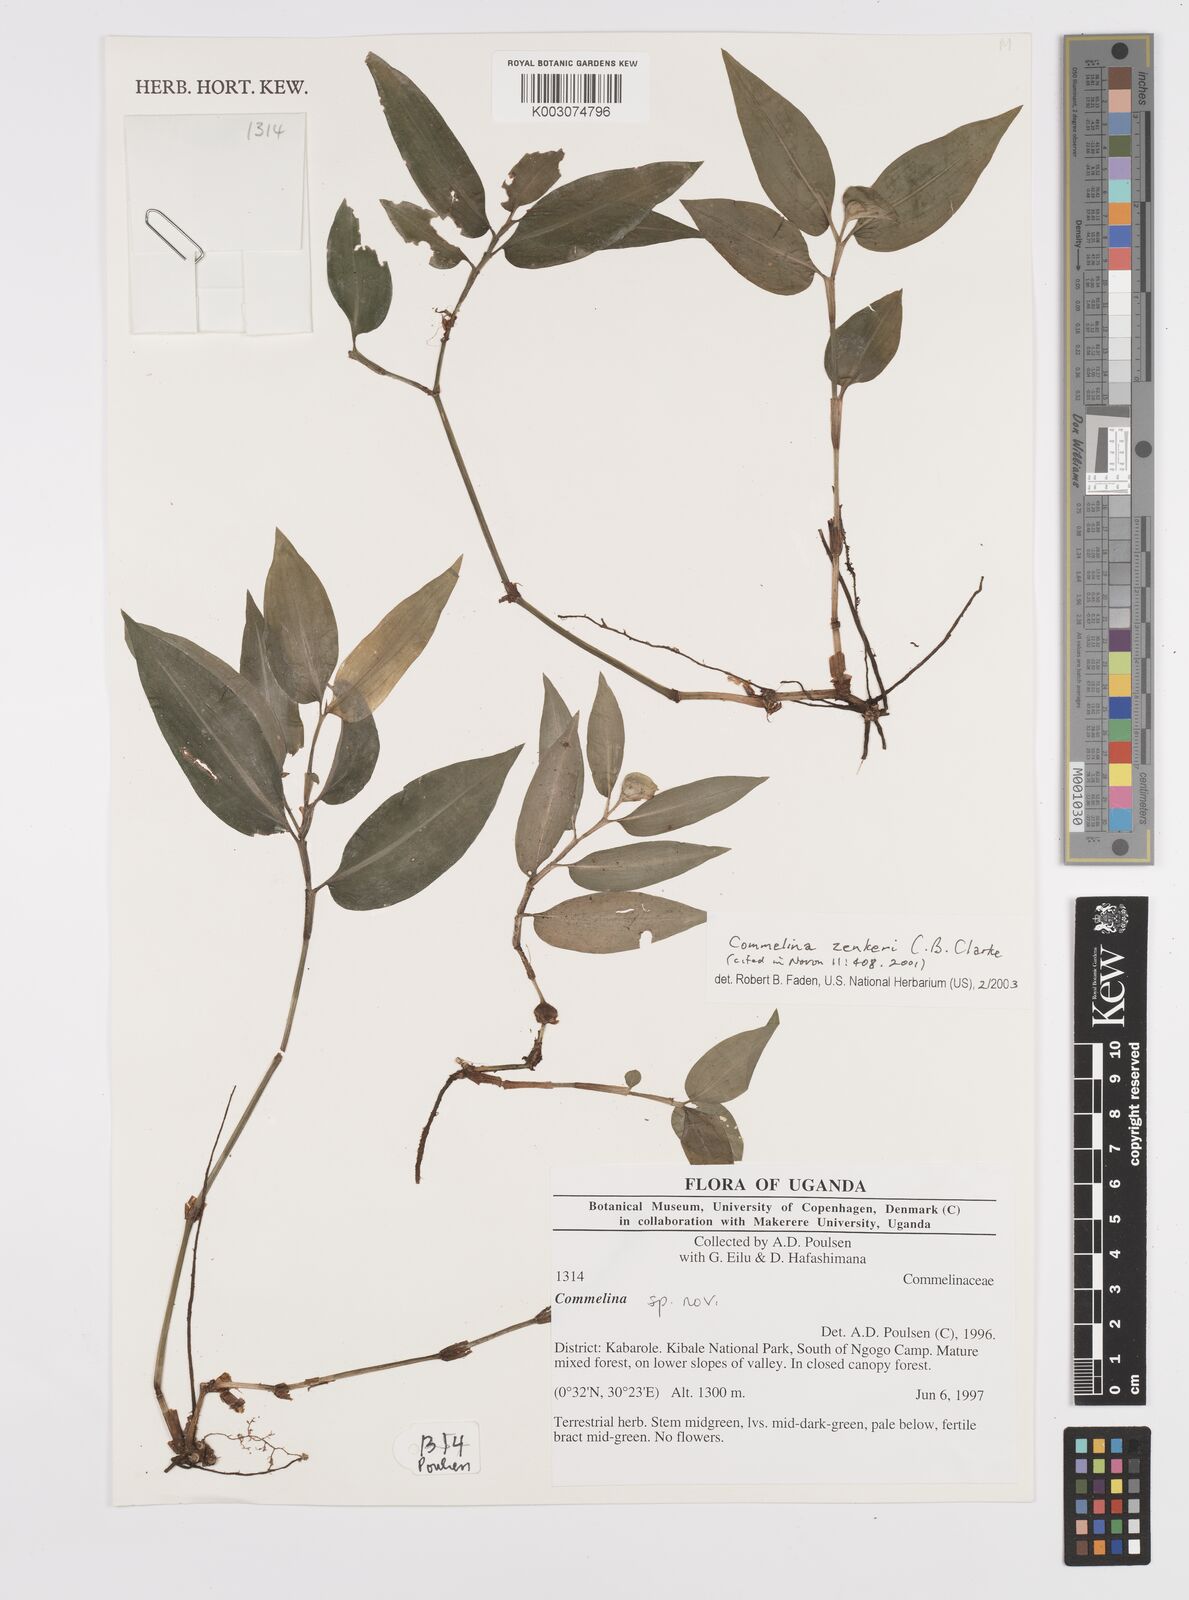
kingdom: Plantae
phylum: Tracheophyta
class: Liliopsida
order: Commelinales
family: Commelinaceae
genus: Commelina
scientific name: Commelina zenkeri
